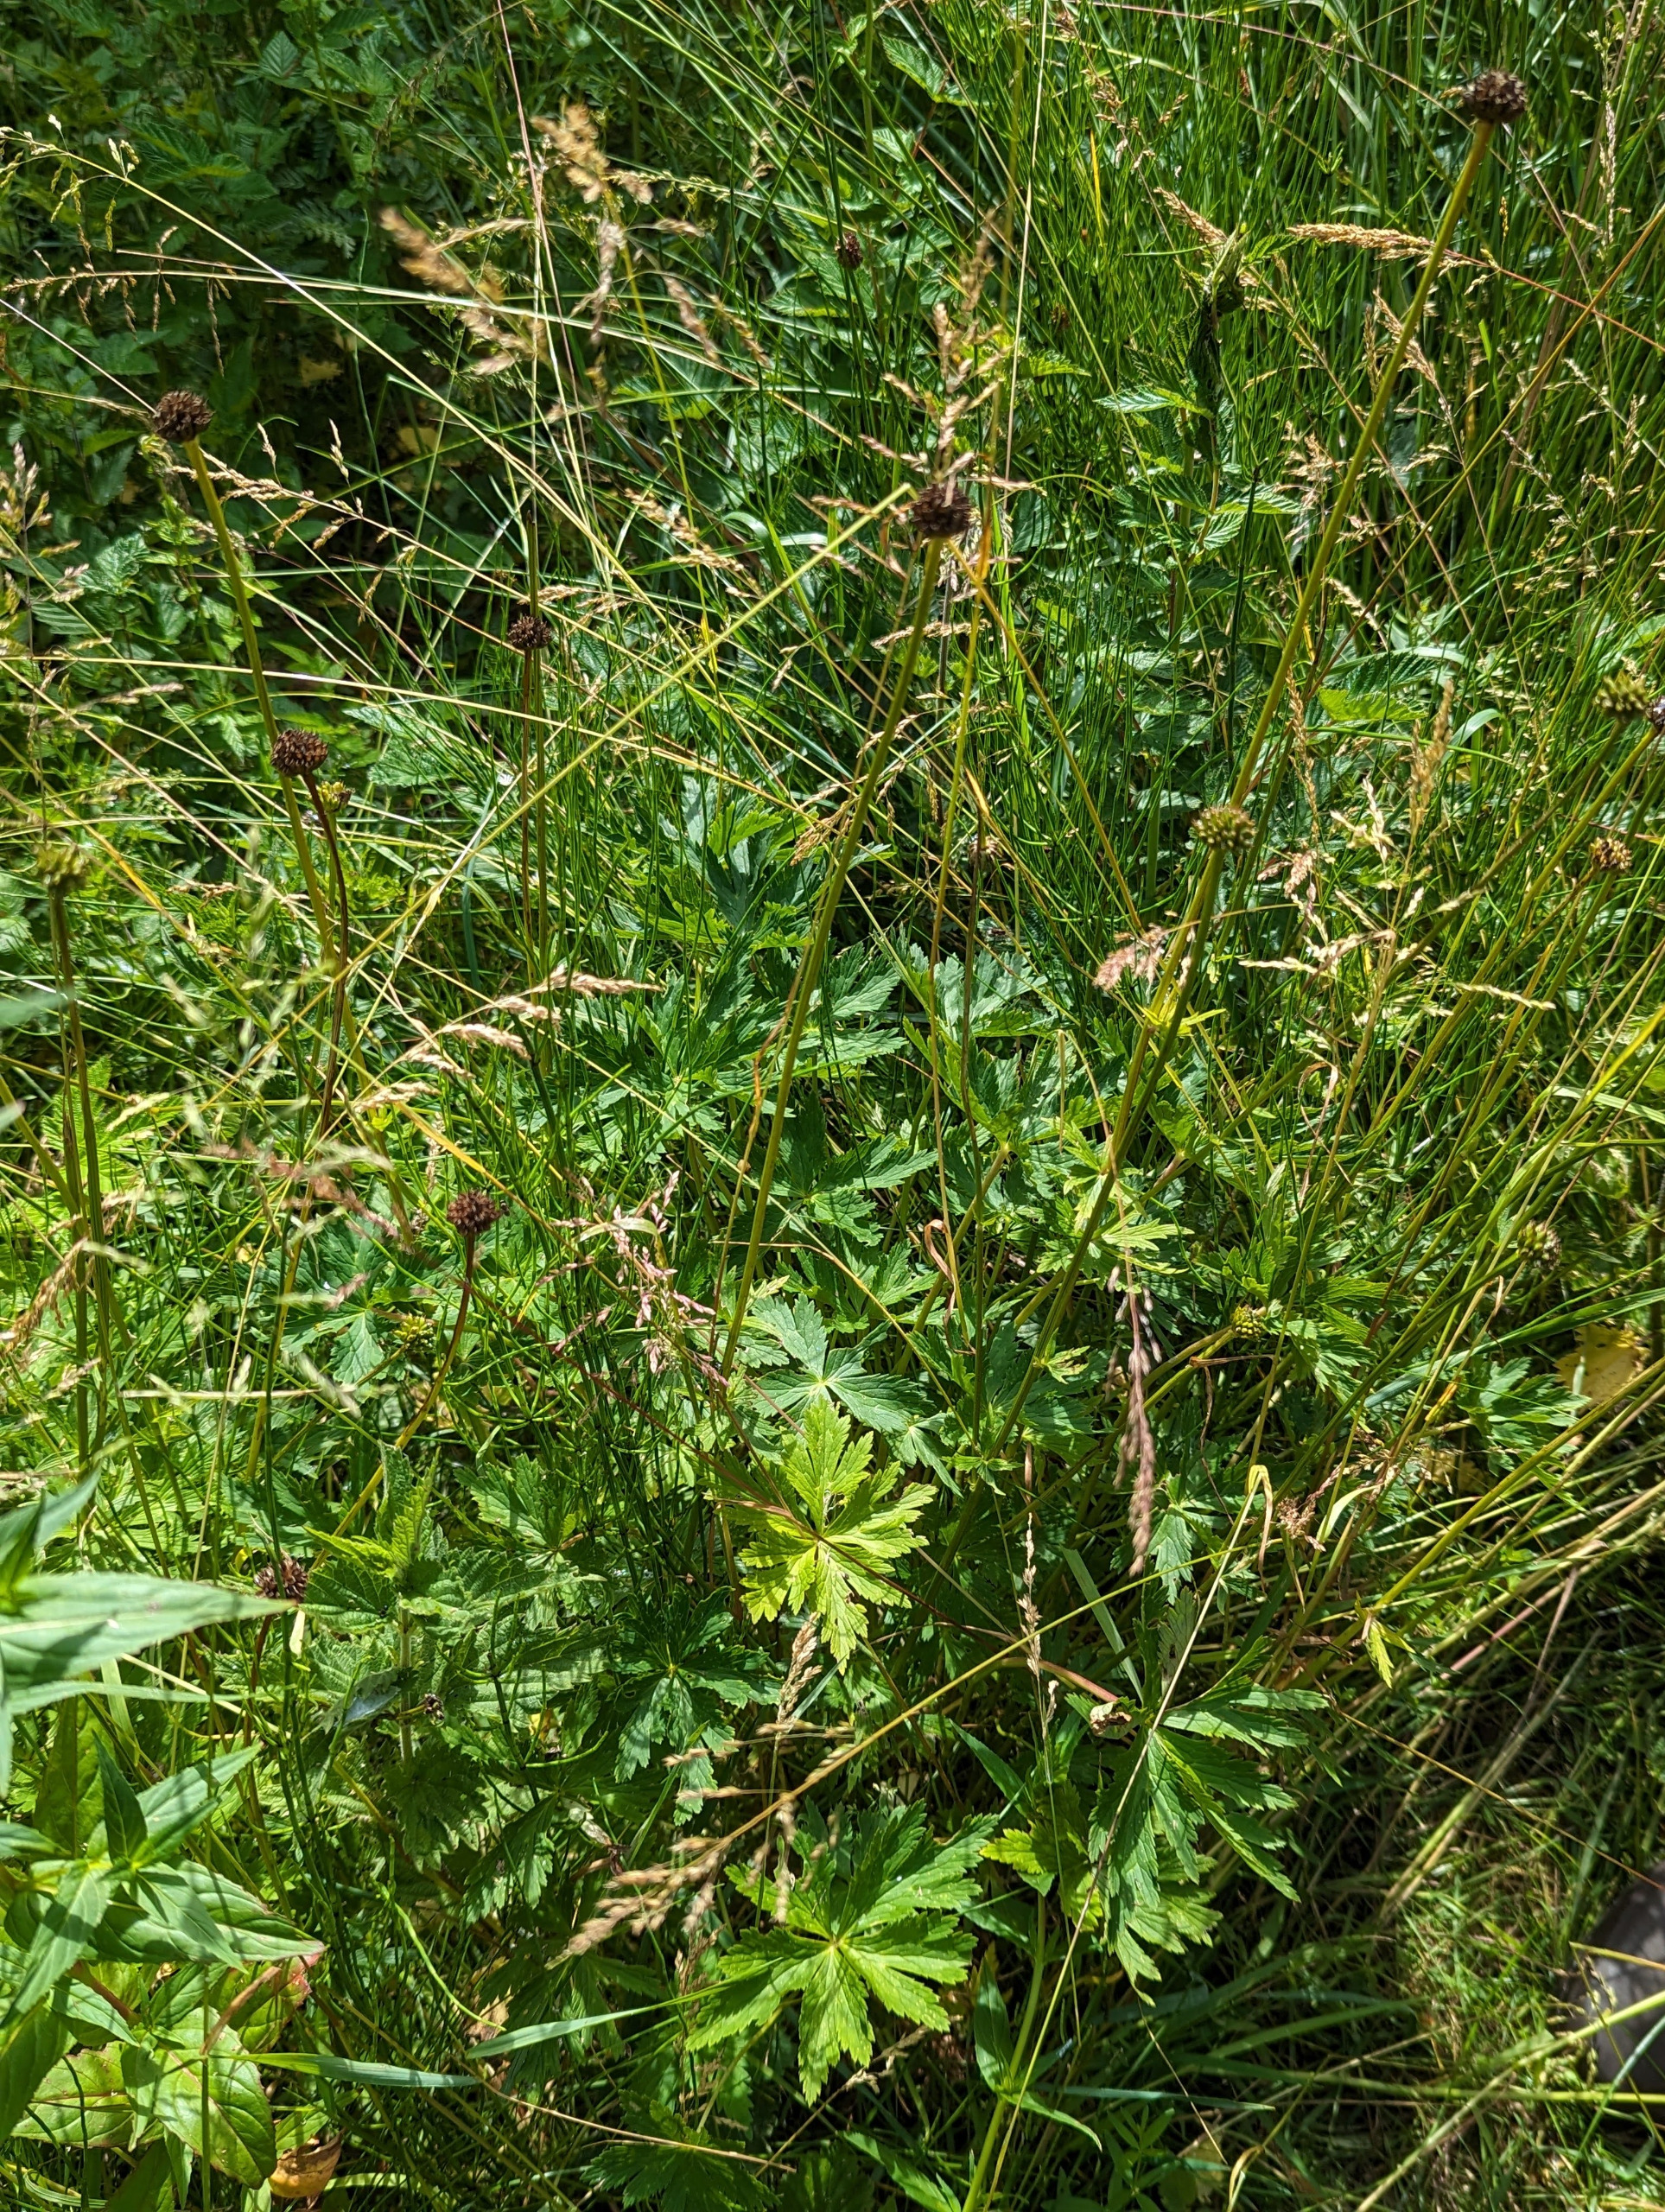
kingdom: Plantae
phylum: Tracheophyta
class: Magnoliopsida
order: Ranunculales
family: Ranunculaceae
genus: Trollius
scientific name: Trollius europaeus
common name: Engblomme
